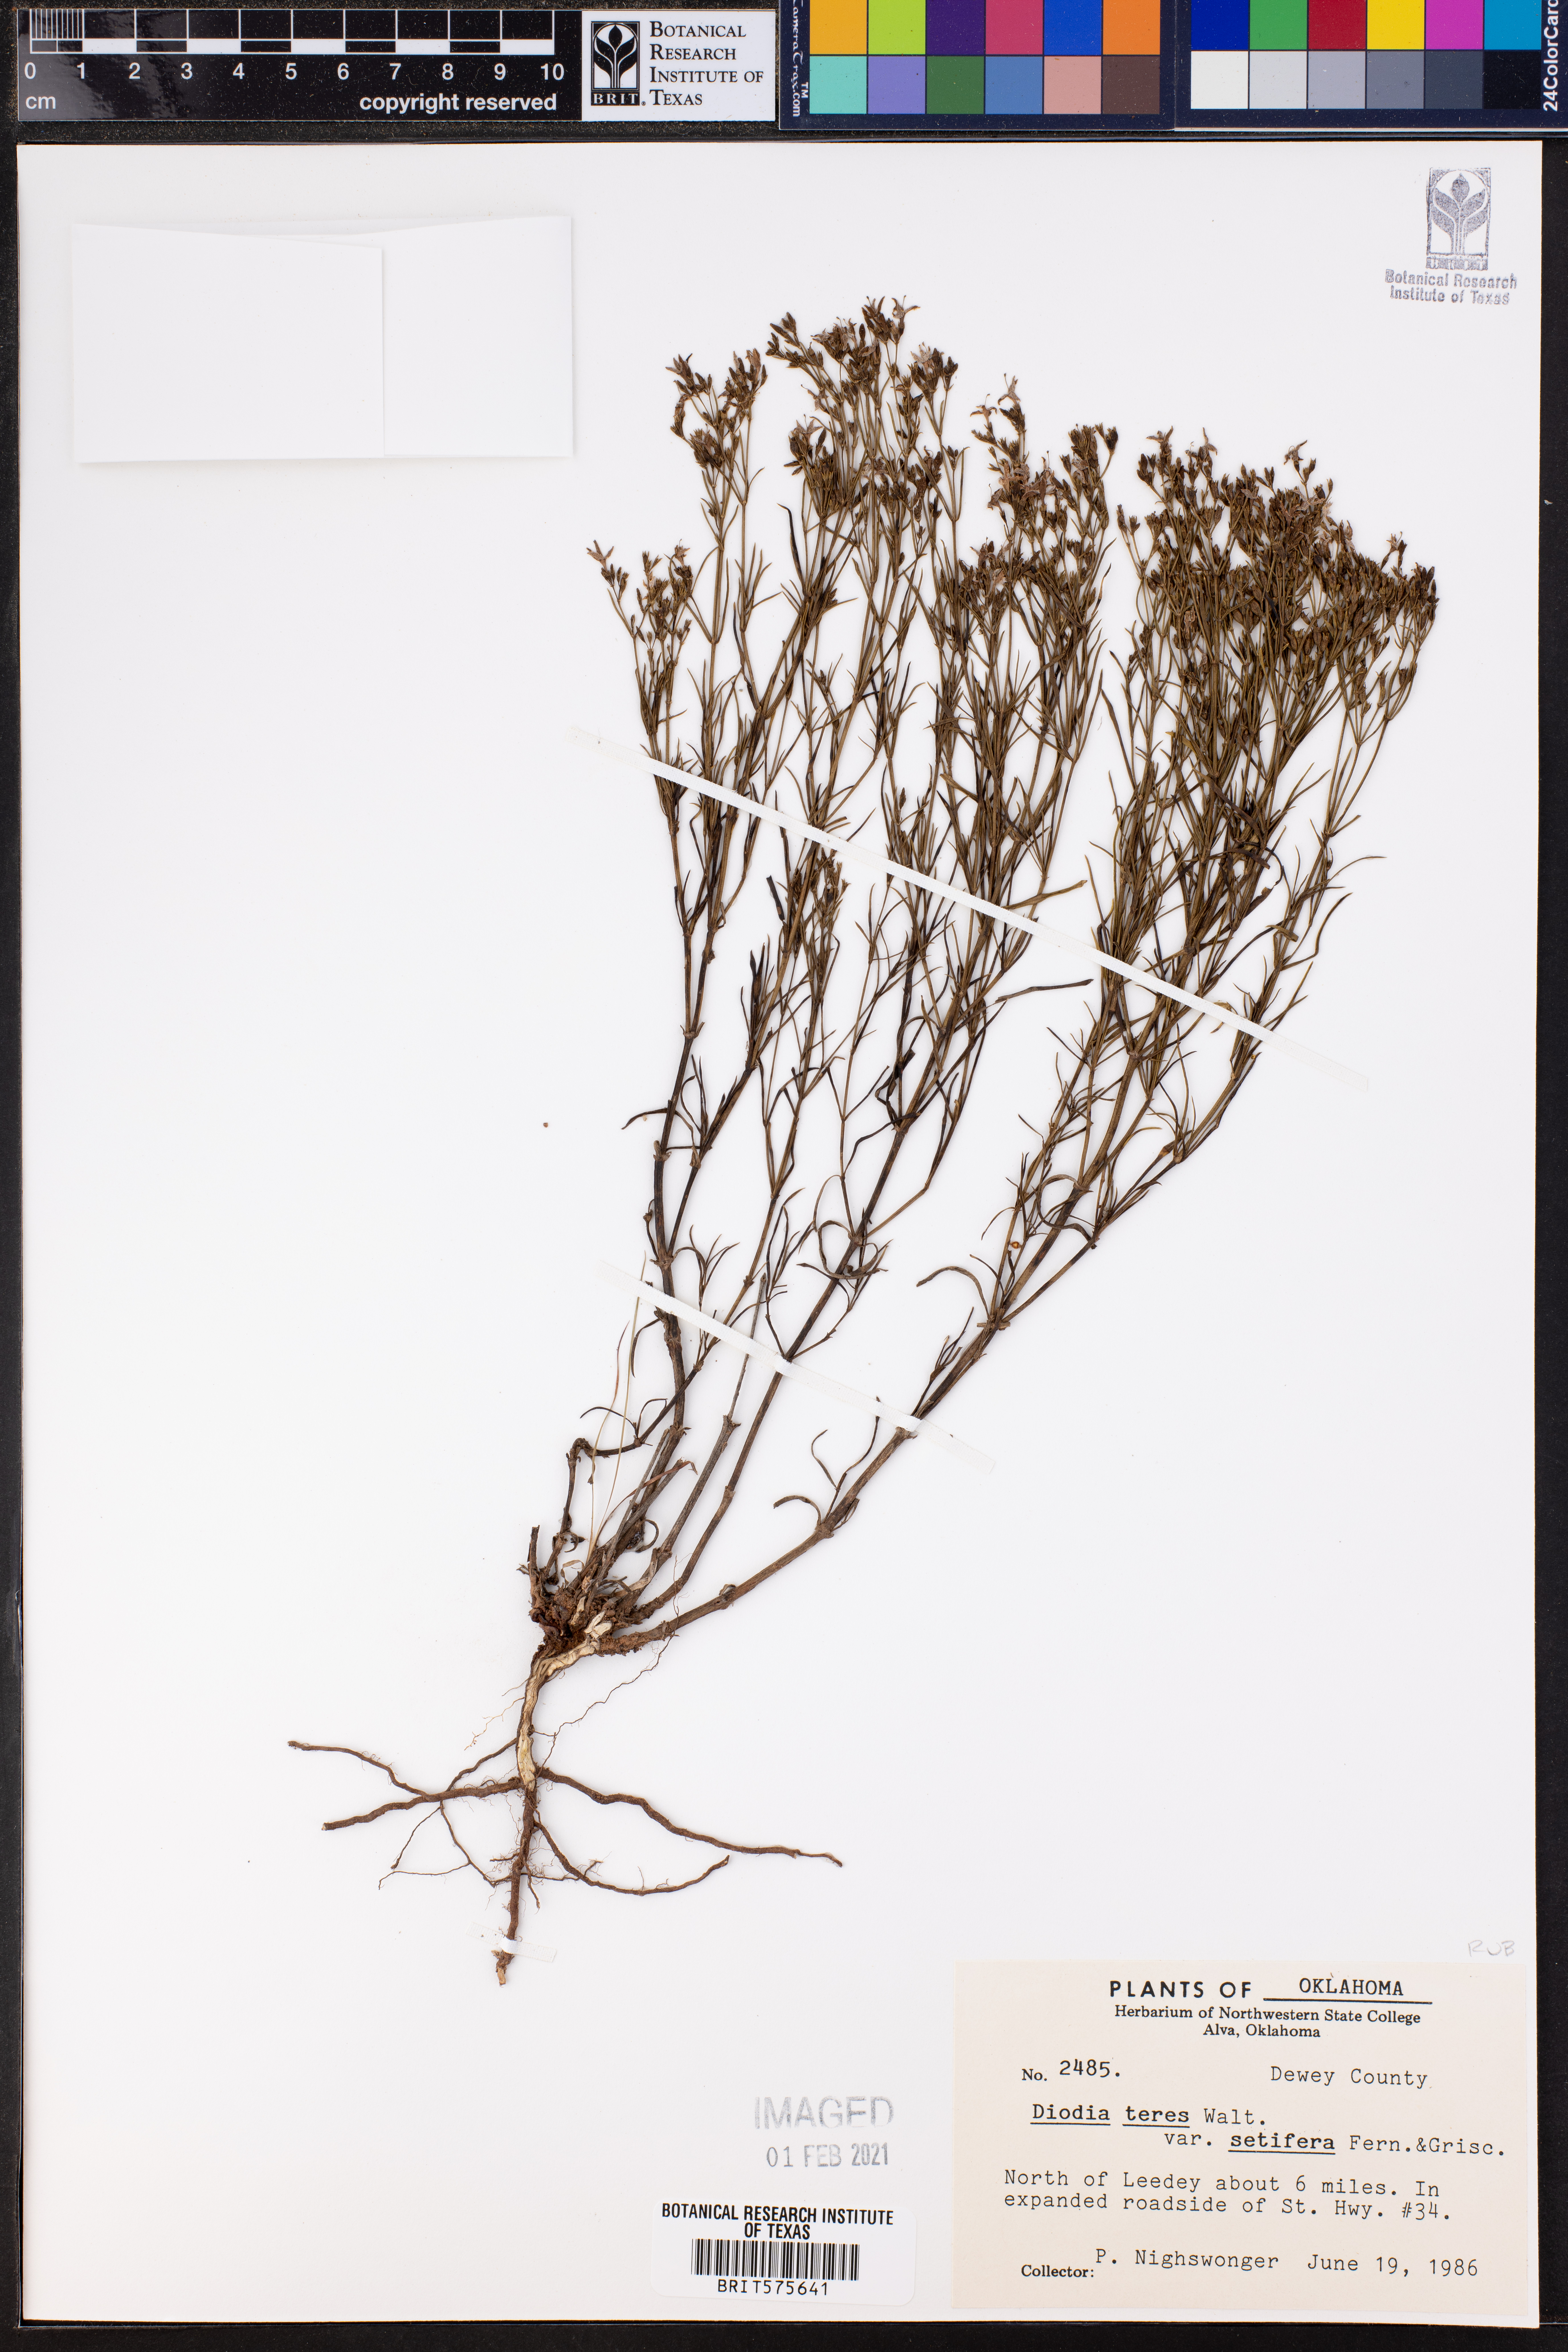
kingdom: Plantae
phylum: Tracheophyta
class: Magnoliopsida
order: Gentianales
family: Rubiaceae
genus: Hexasepalum
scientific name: Hexasepalum teres
